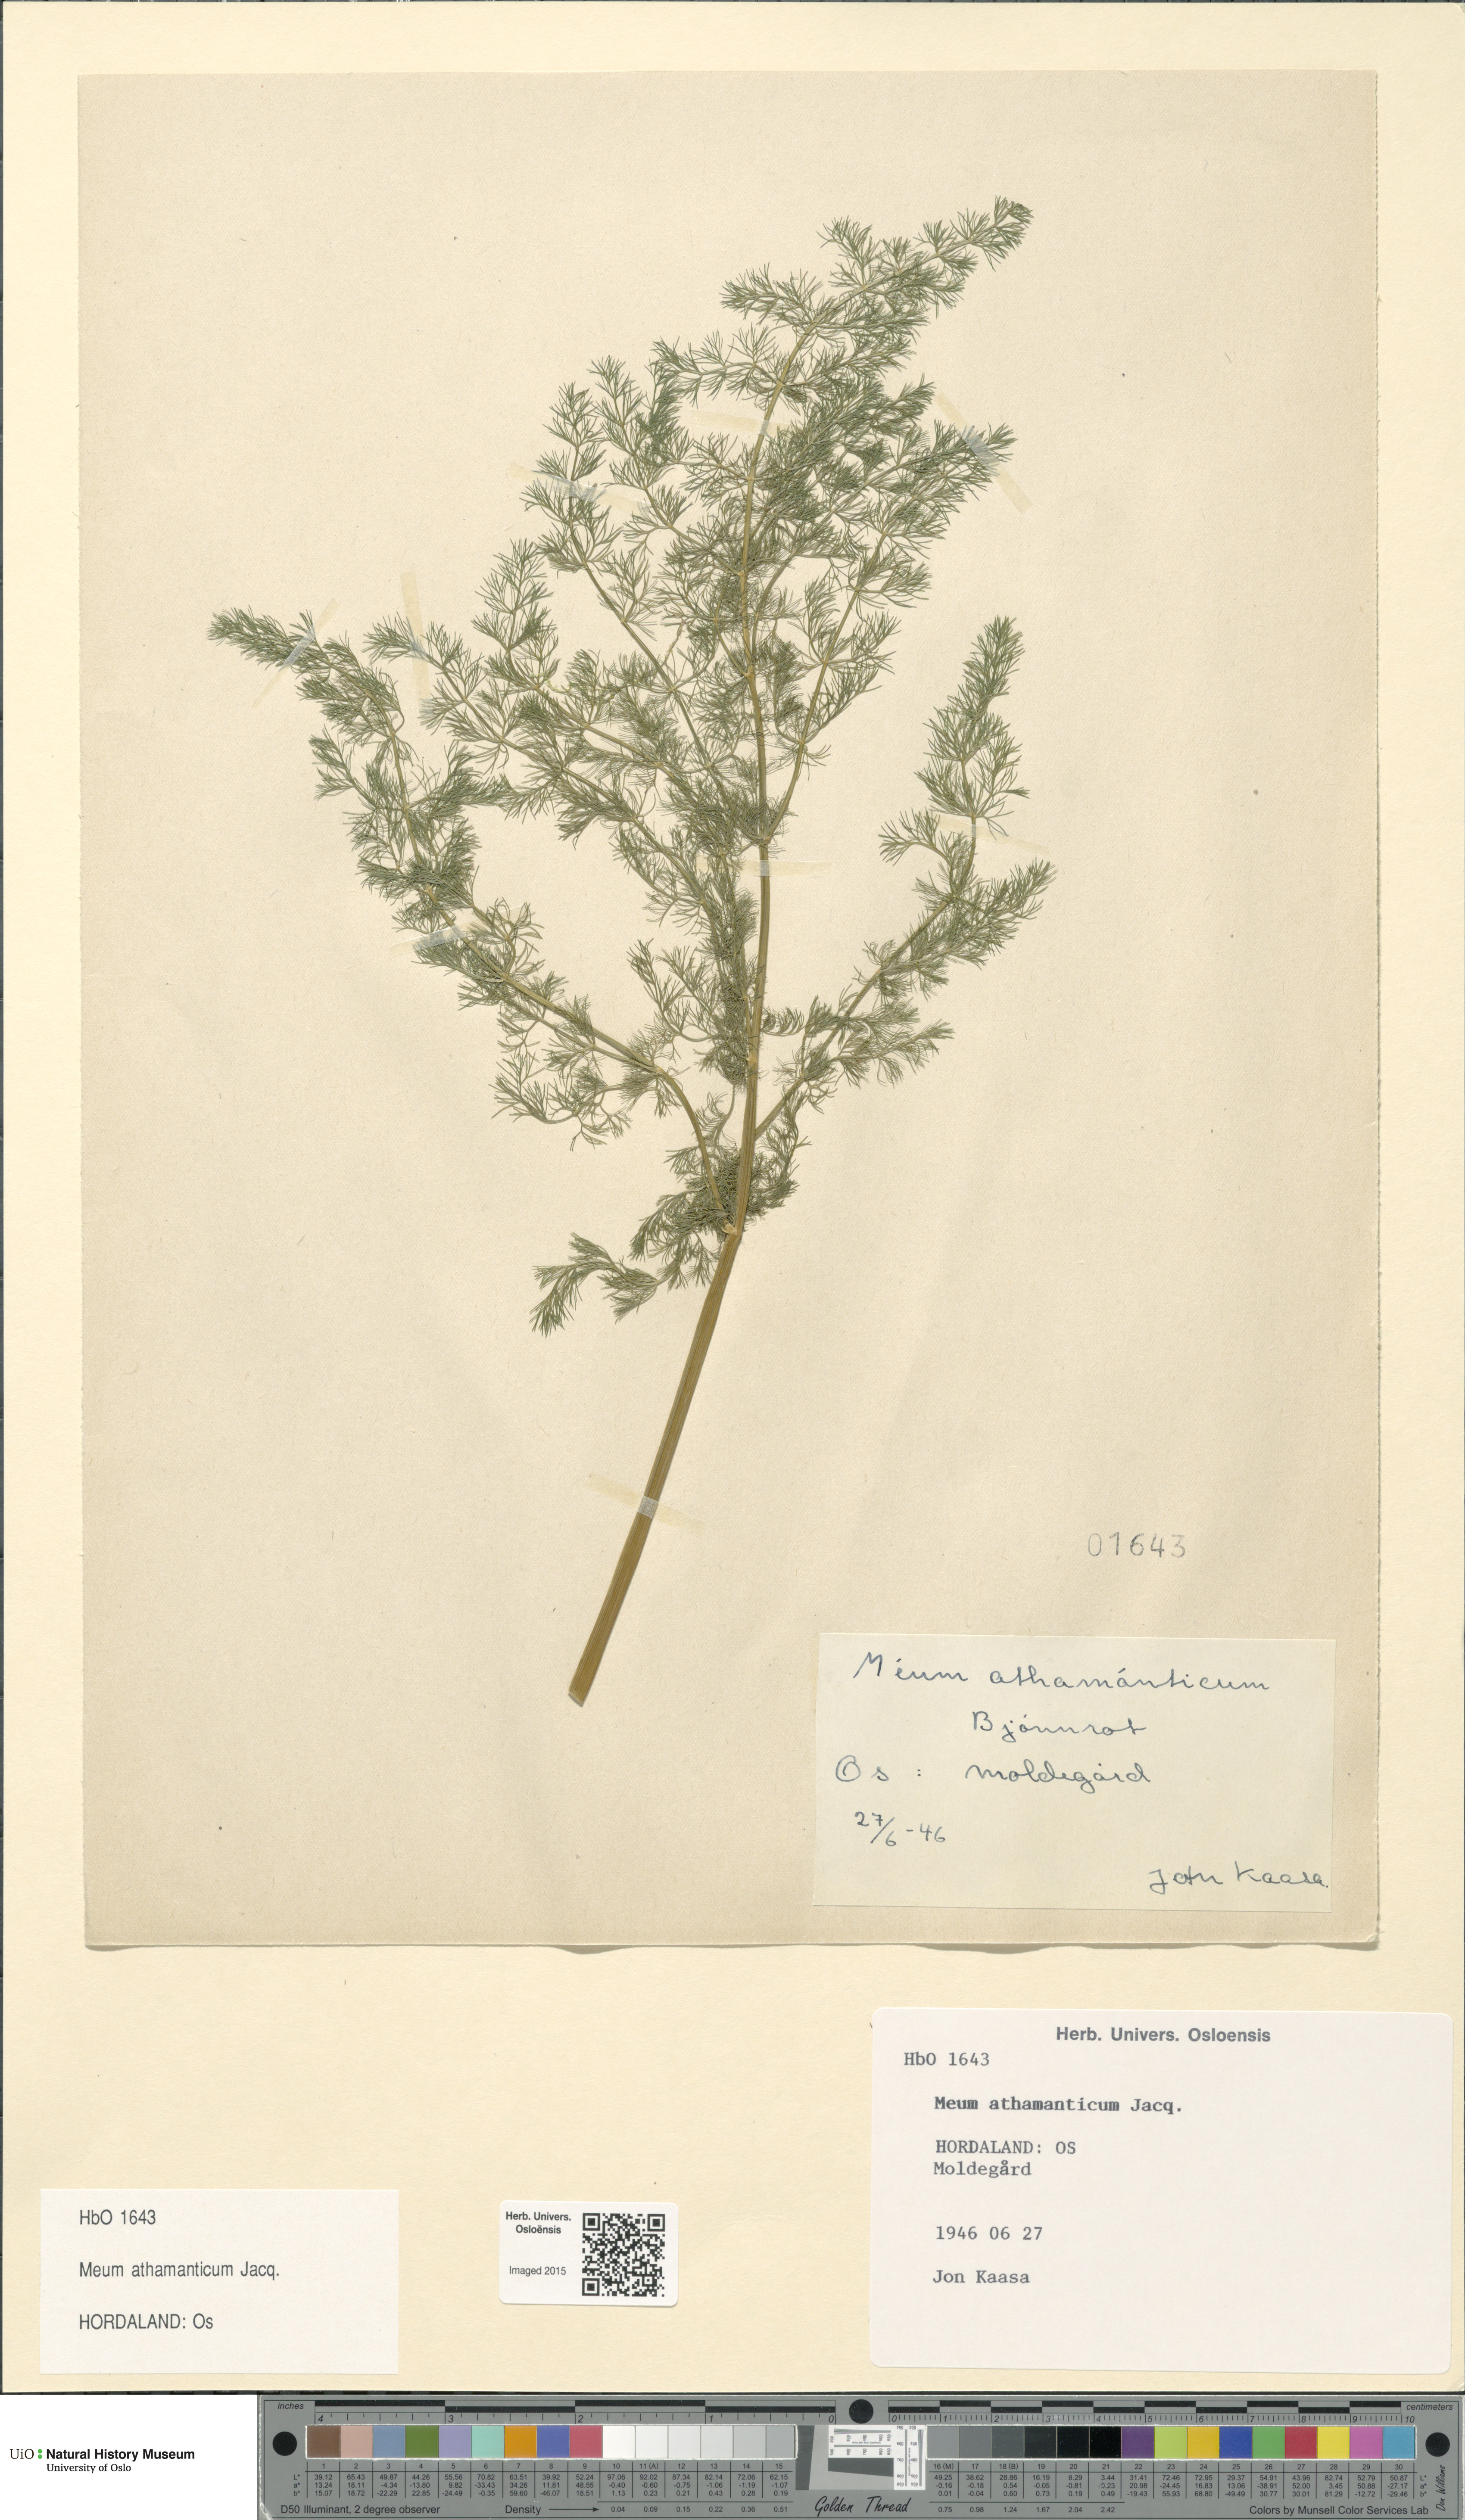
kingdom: Plantae
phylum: Tracheophyta
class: Magnoliopsida
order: Apiales
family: Apiaceae
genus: Meum
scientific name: Meum athamanticum
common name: Spignel
